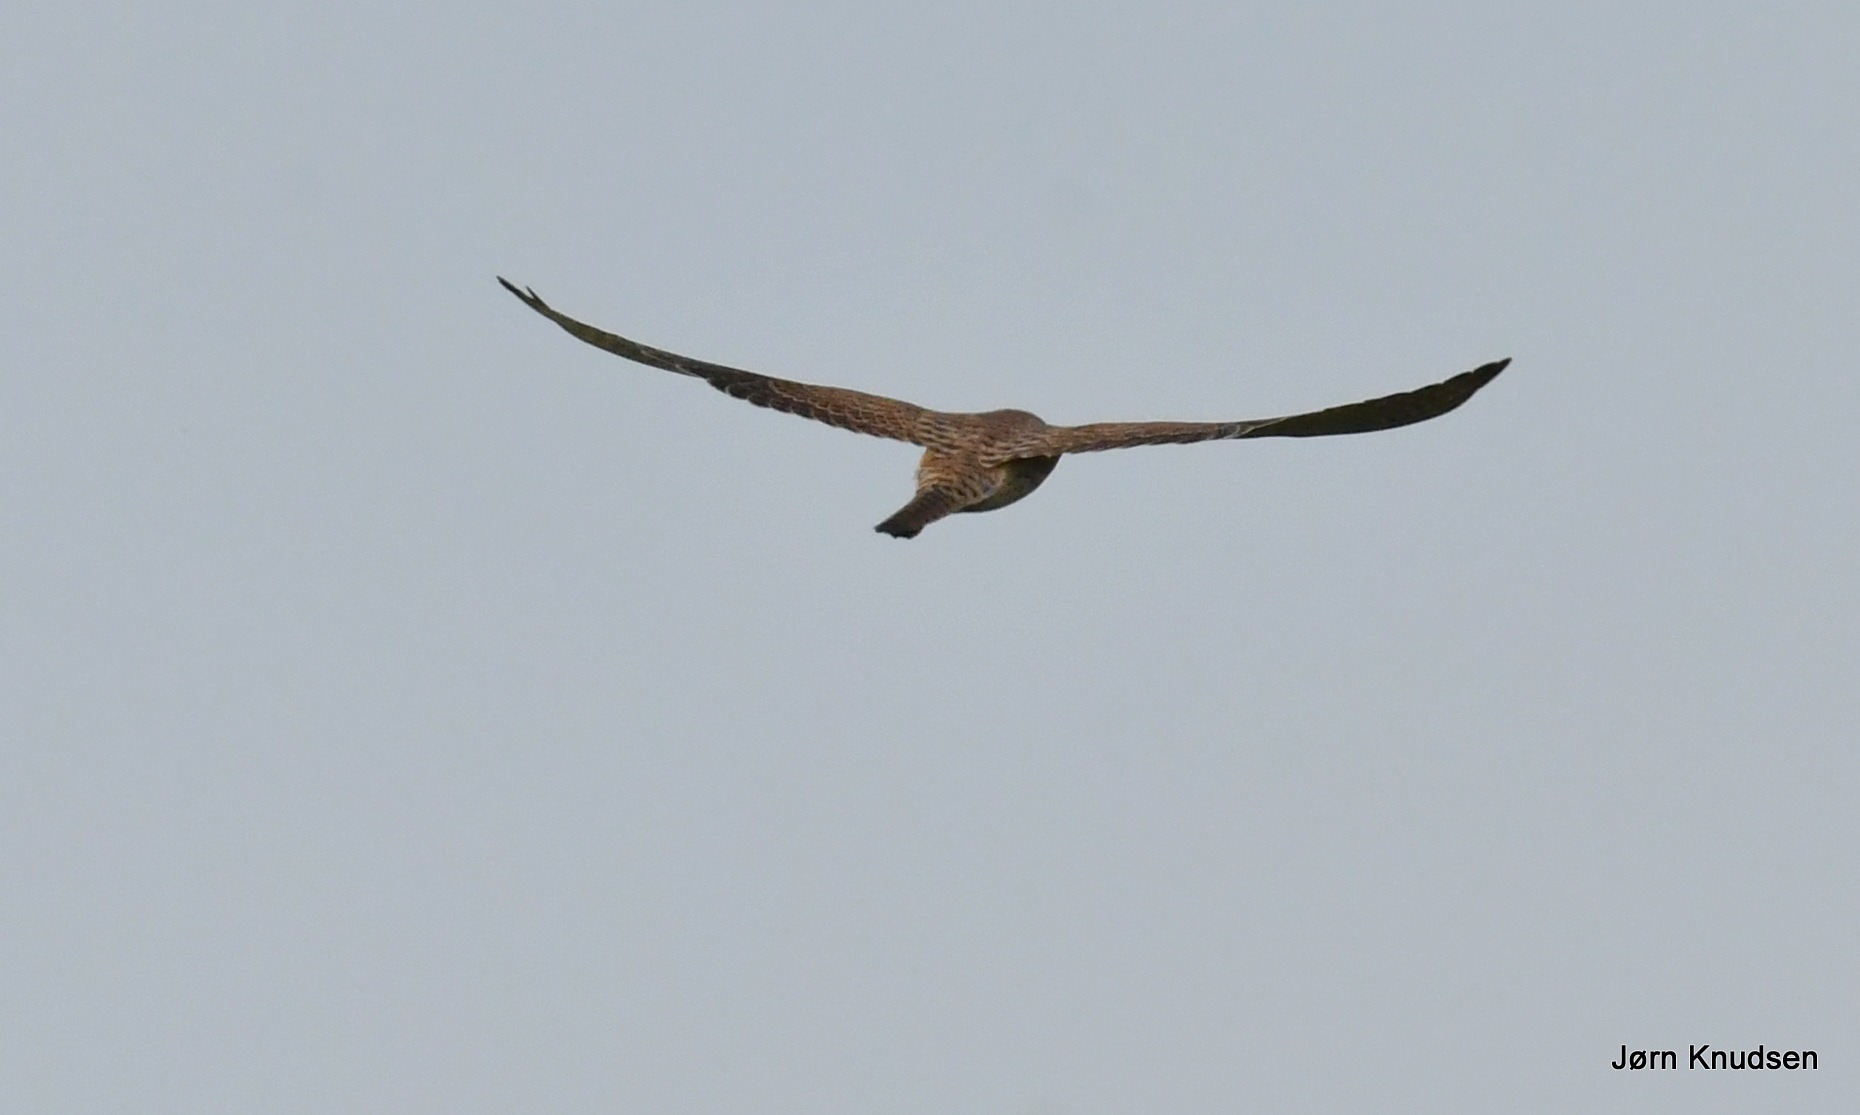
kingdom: Animalia
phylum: Chordata
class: Aves
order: Falconiformes
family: Falconidae
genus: Falco
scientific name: Falco tinnunculus
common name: Tårnfalk
